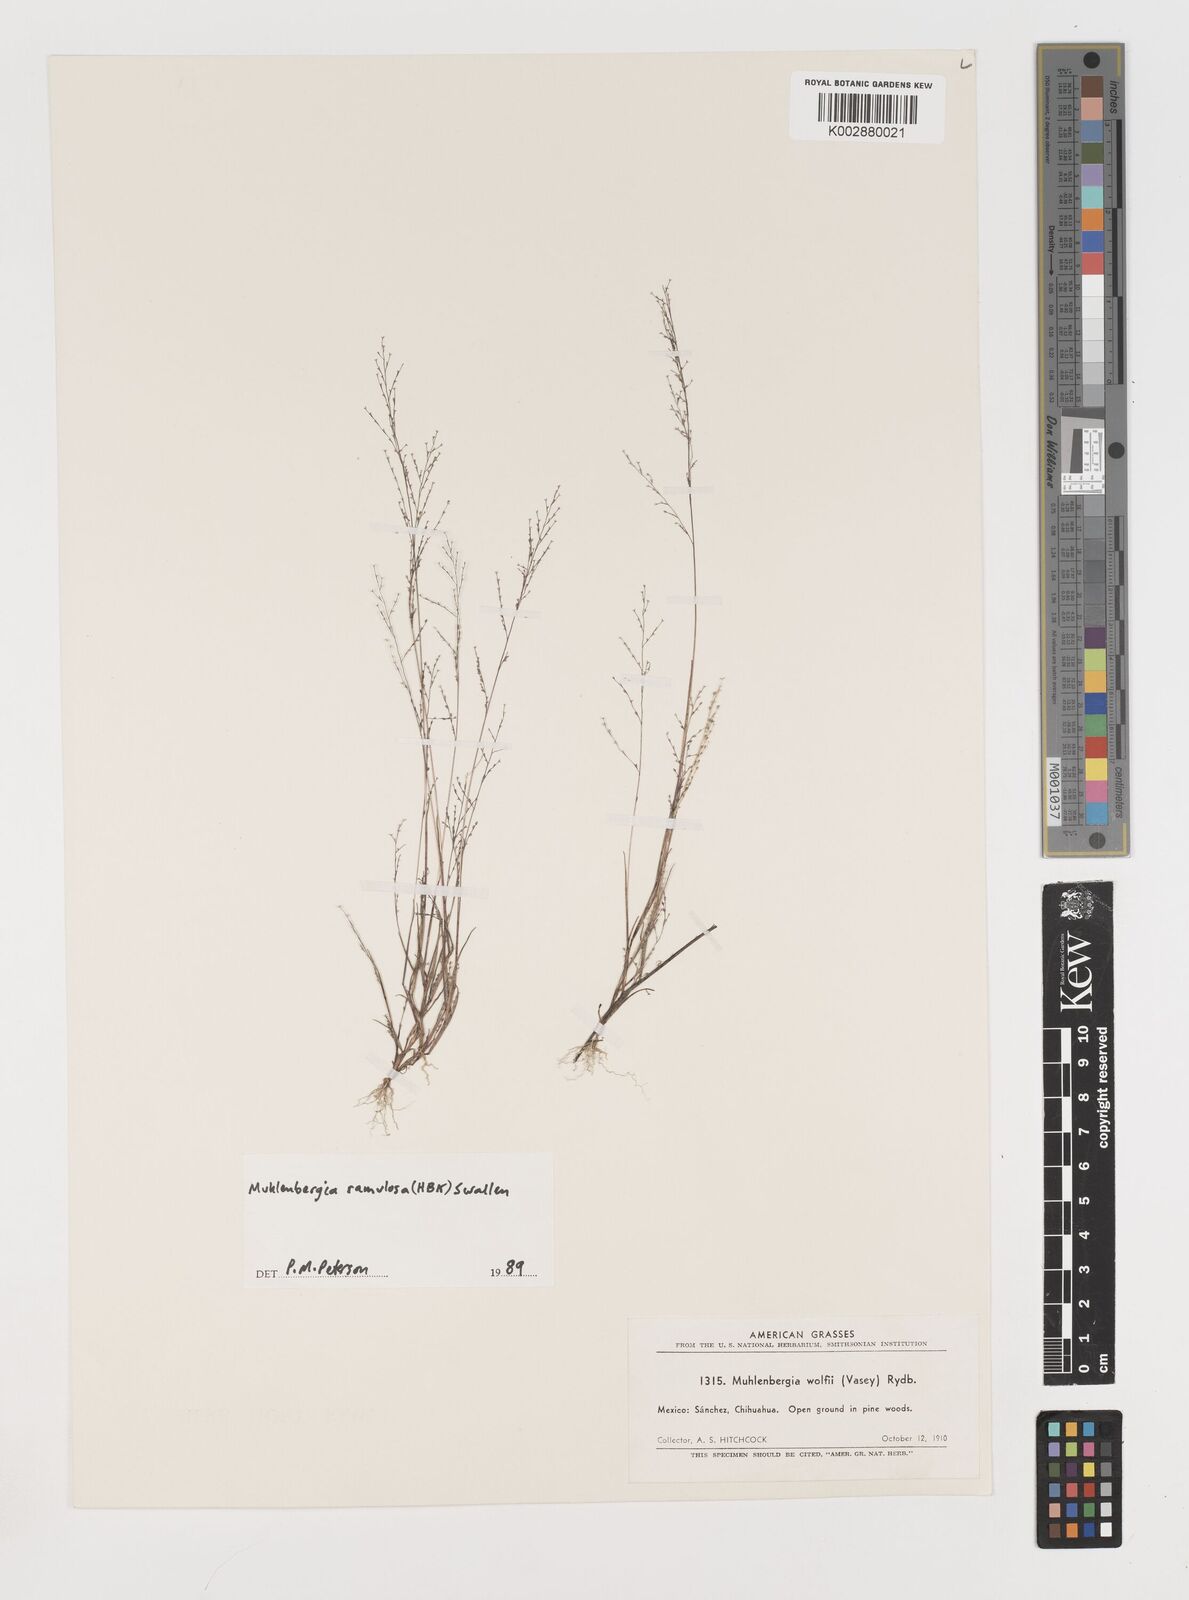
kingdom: Plantae
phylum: Tracheophyta
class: Liliopsida
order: Poales
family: Poaceae
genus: Muhlenbergia
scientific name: Muhlenbergia ramulosa
